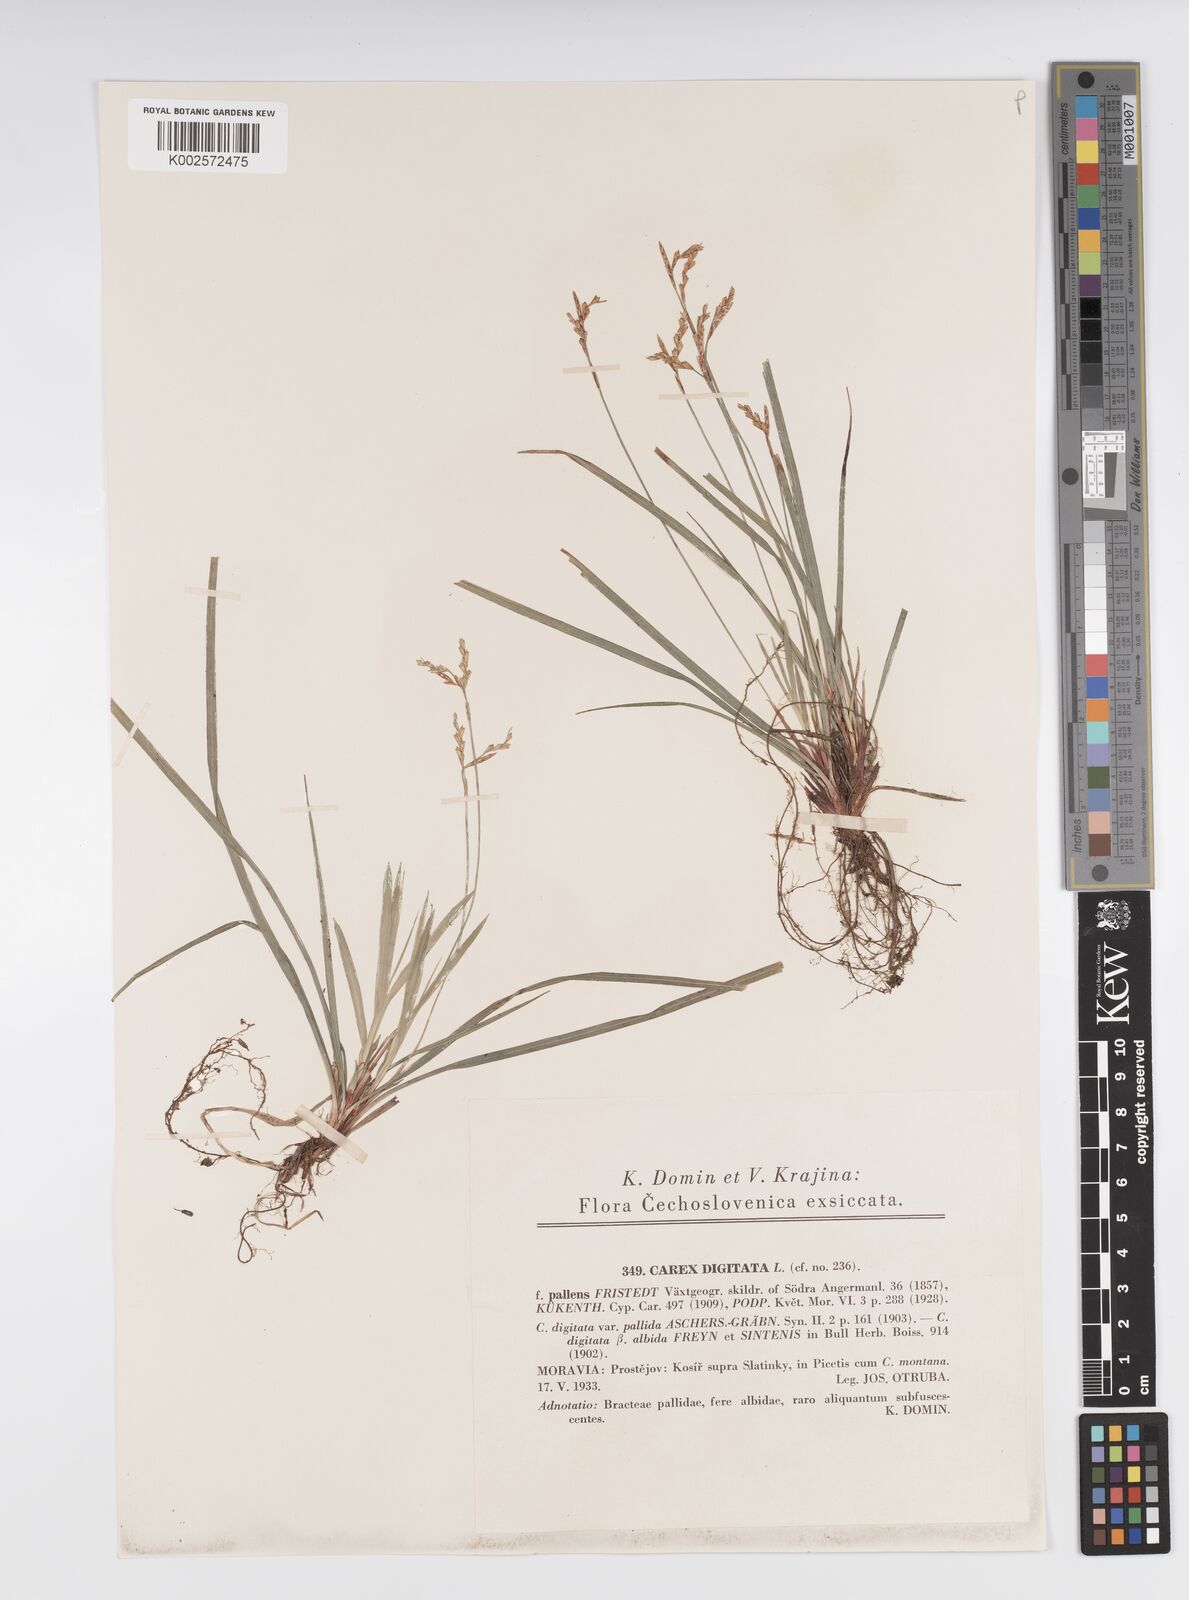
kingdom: Plantae
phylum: Tracheophyta
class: Liliopsida
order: Poales
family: Cyperaceae
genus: Carex
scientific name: Carex digitata
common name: Fingered sedge
